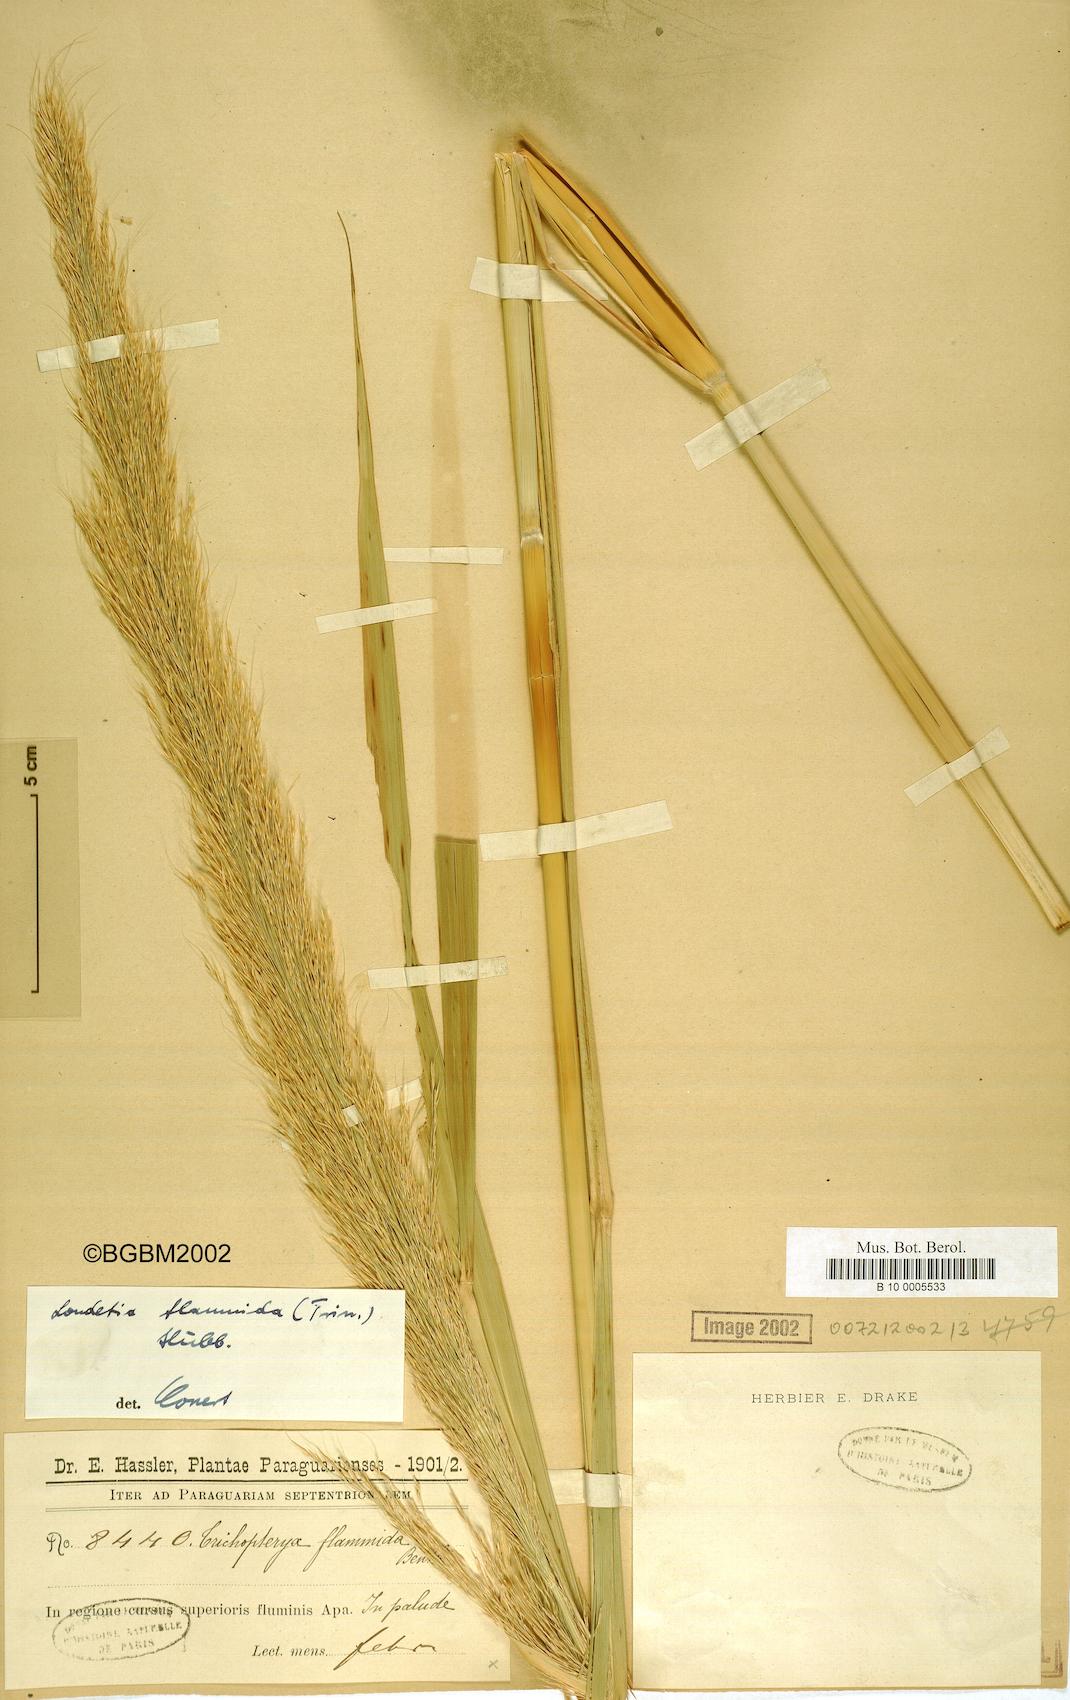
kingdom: Plantae
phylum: Tracheophyta
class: Liliopsida
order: Poales
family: Poaceae
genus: Loudetia
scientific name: Loudetia flammida
